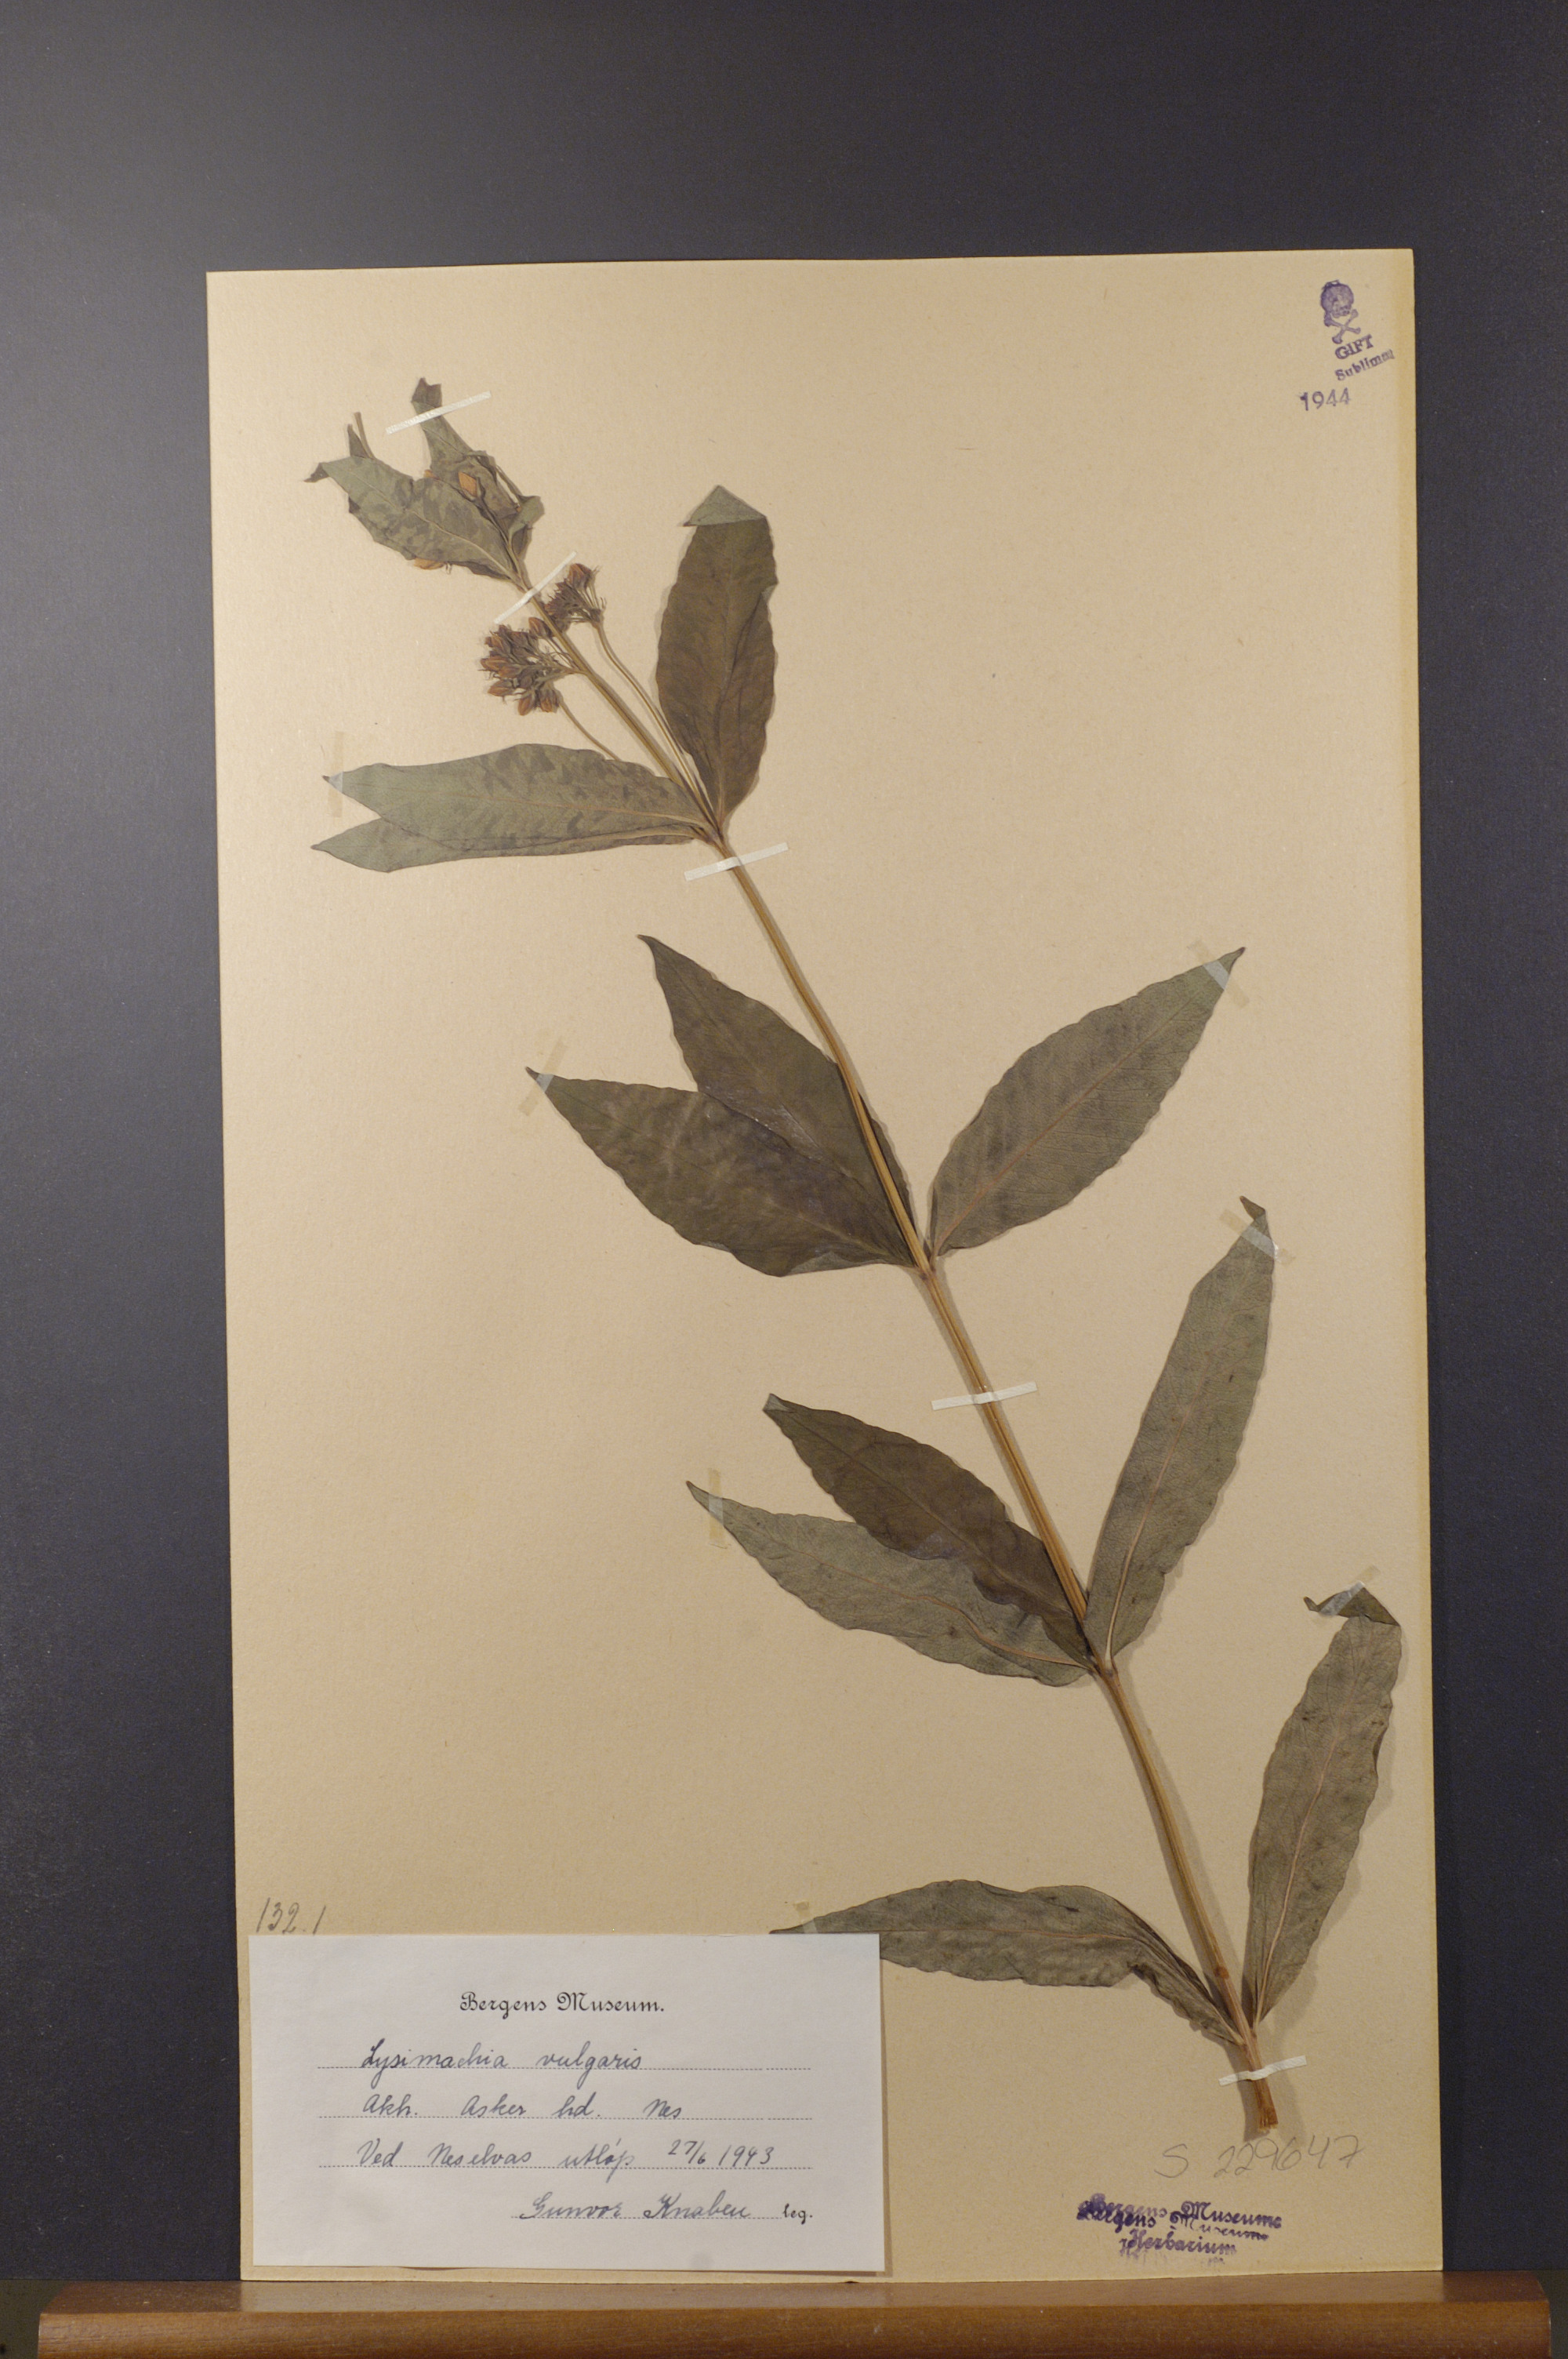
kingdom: Plantae
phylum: Tracheophyta
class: Magnoliopsida
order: Ericales
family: Primulaceae
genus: Lysimachia
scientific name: Lysimachia vulgaris
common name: Yellow loosestrife
